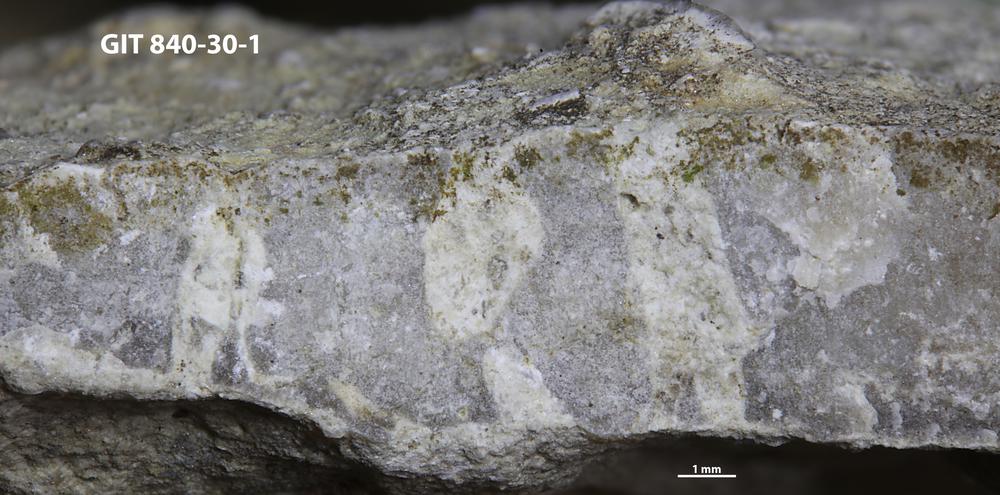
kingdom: Animalia
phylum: Sipuncula
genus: Trypanites
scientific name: Trypanites
